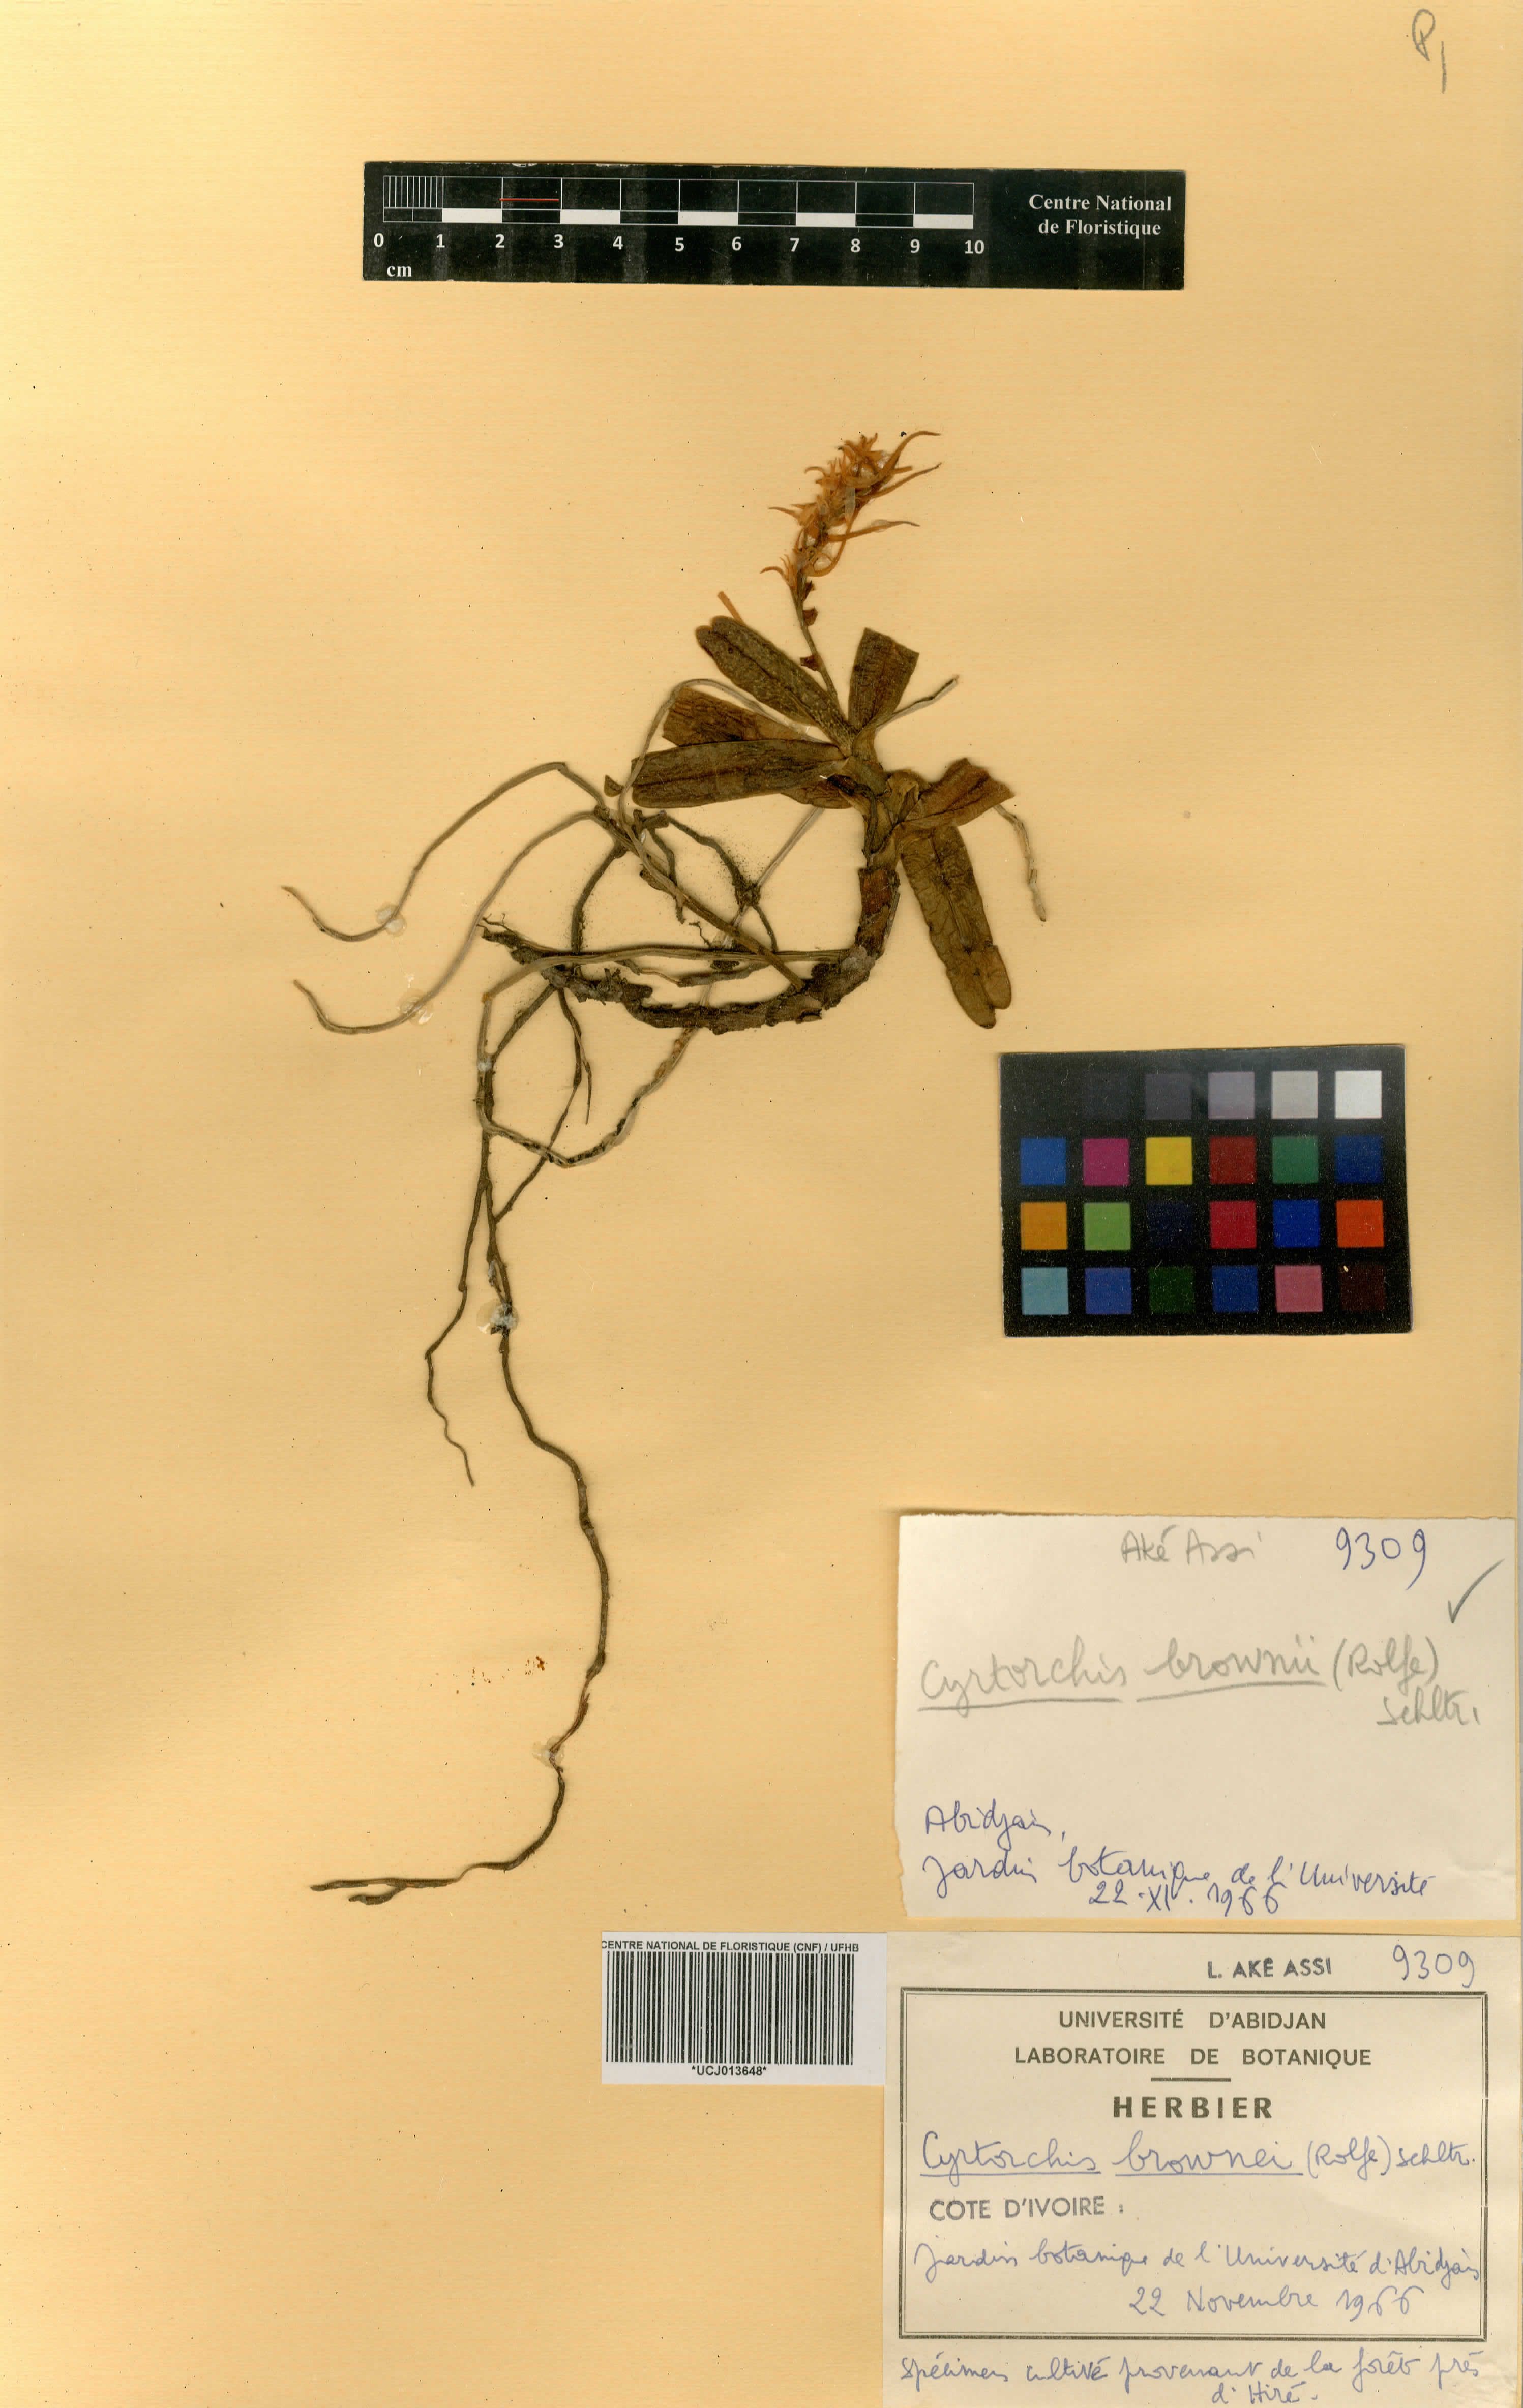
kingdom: Plantae
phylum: Tracheophyta
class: Liliopsida
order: Asparagales
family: Orchidaceae
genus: Cyrtorchis
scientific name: Cyrtorchis brownii
